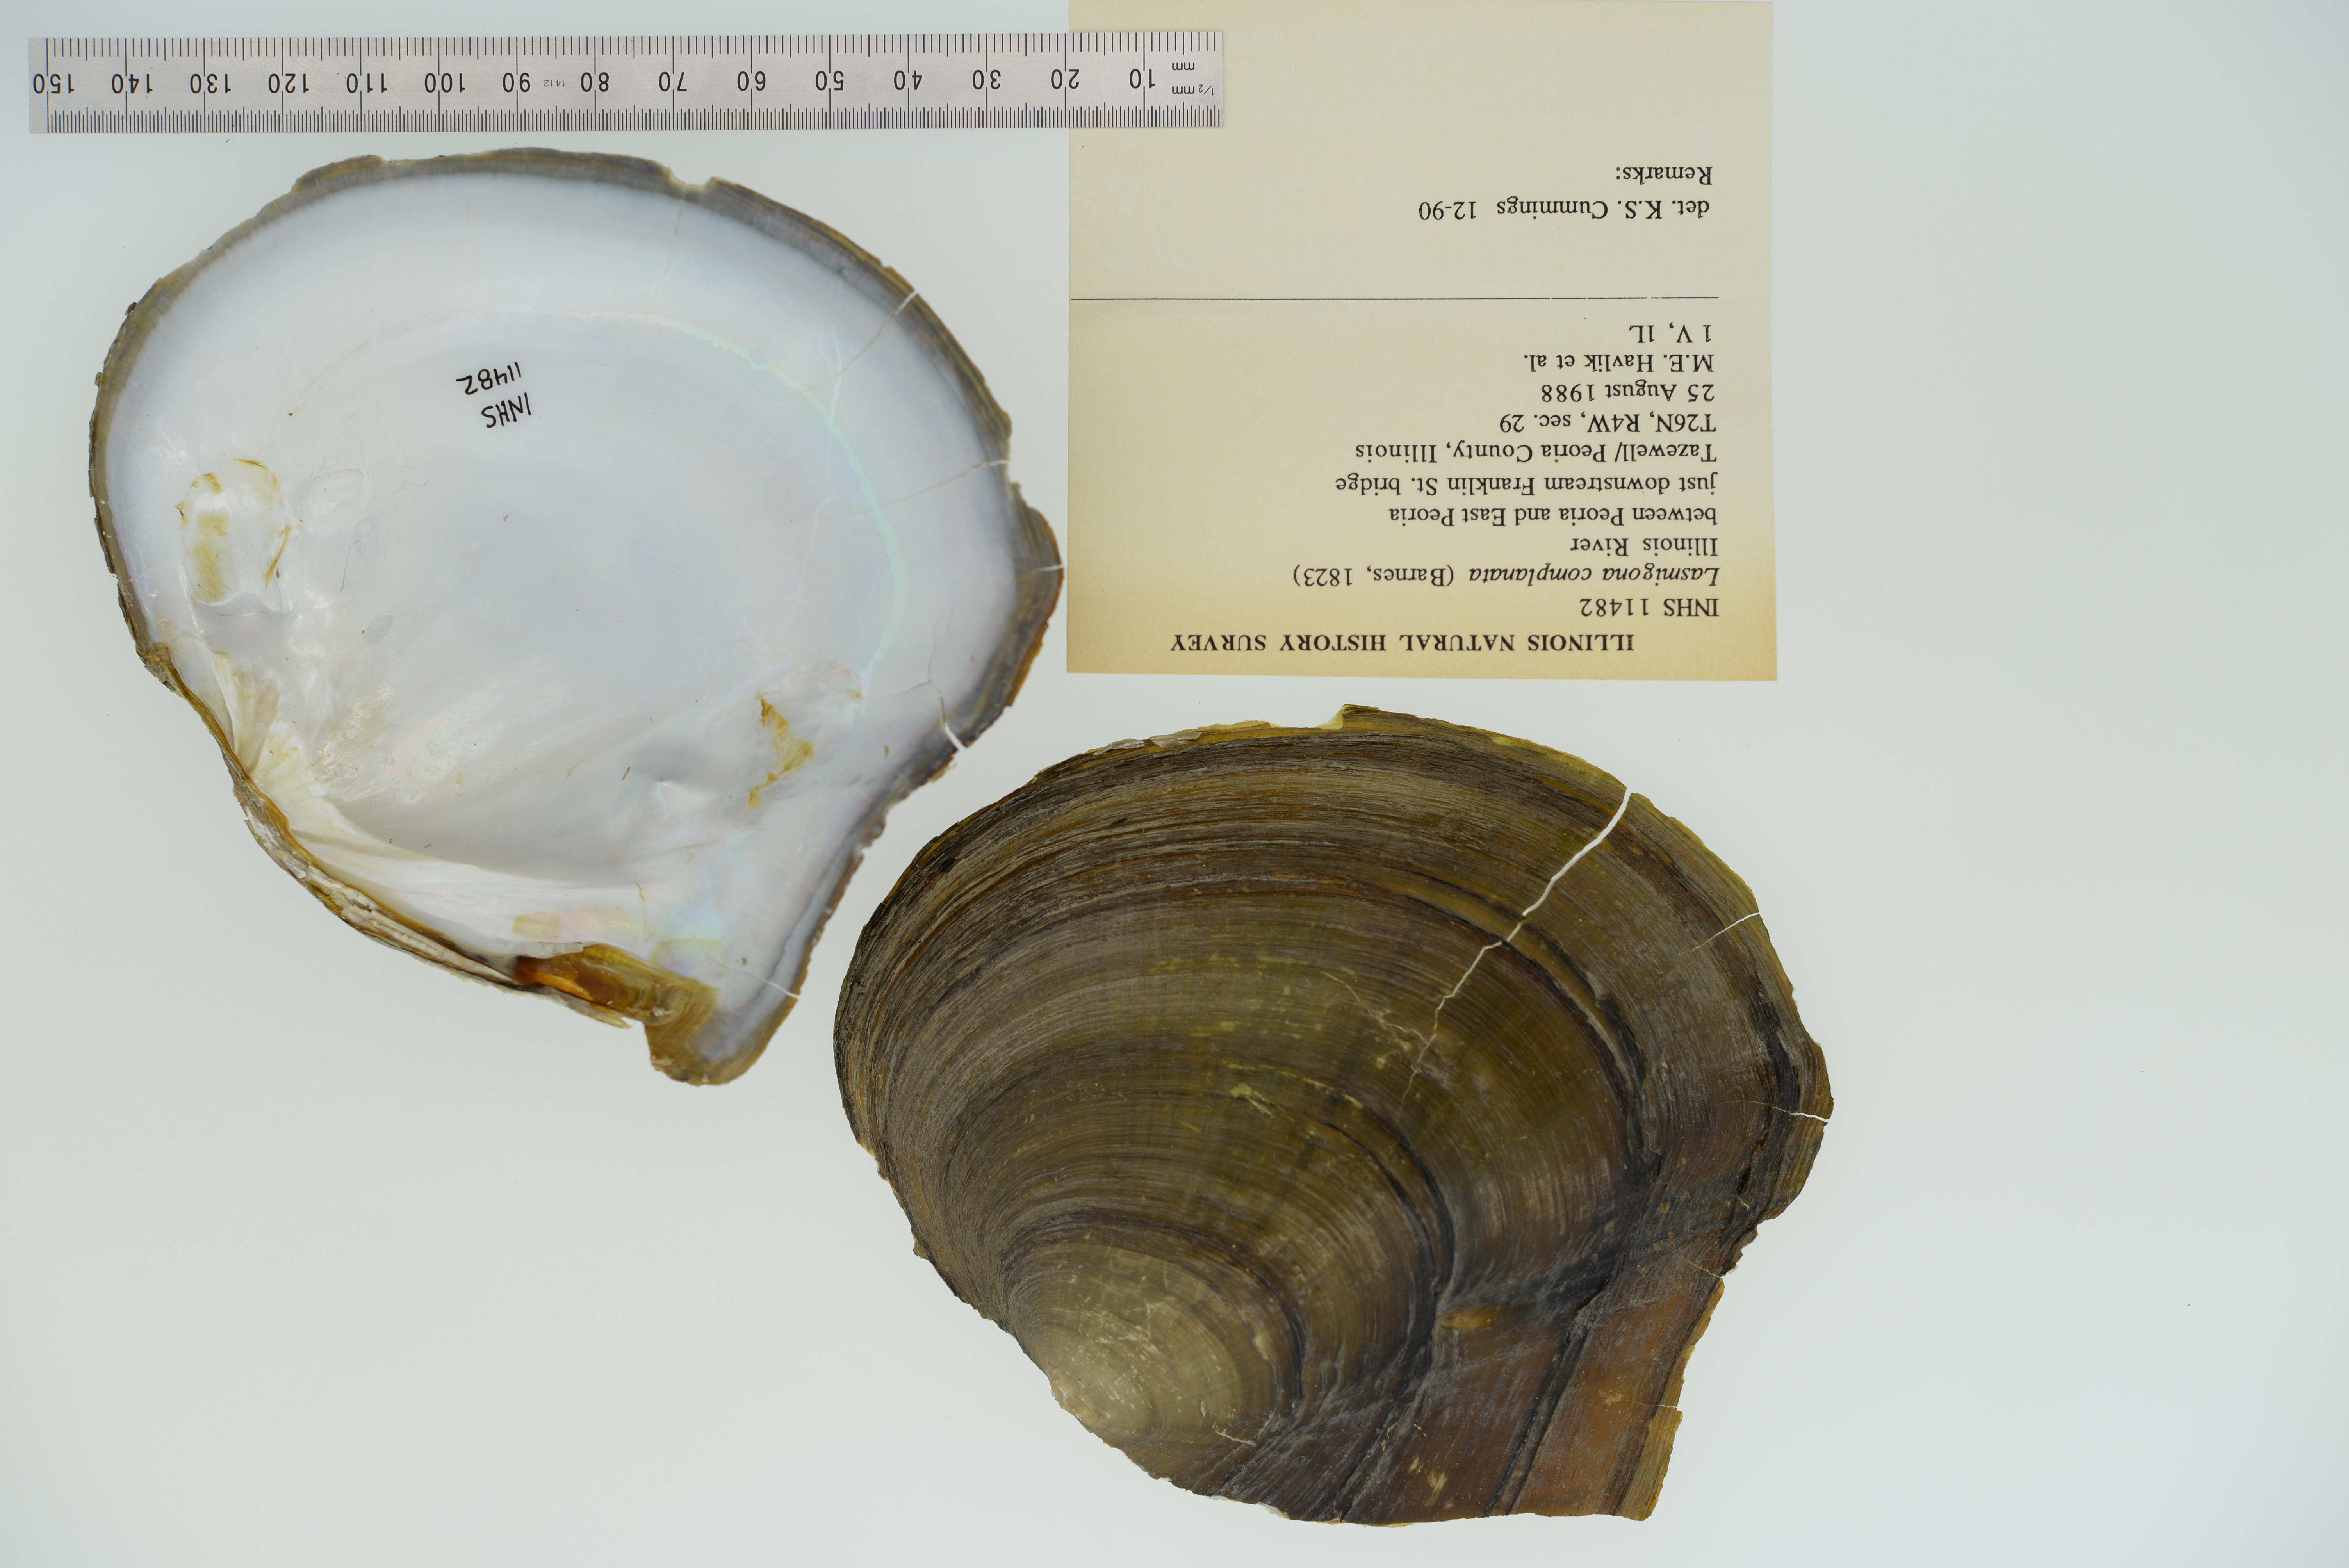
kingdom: Animalia
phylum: Mollusca
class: Bivalvia
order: Unionida
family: Unionidae
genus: Lasmigona
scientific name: Lasmigona complanata
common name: White heelsplitter
